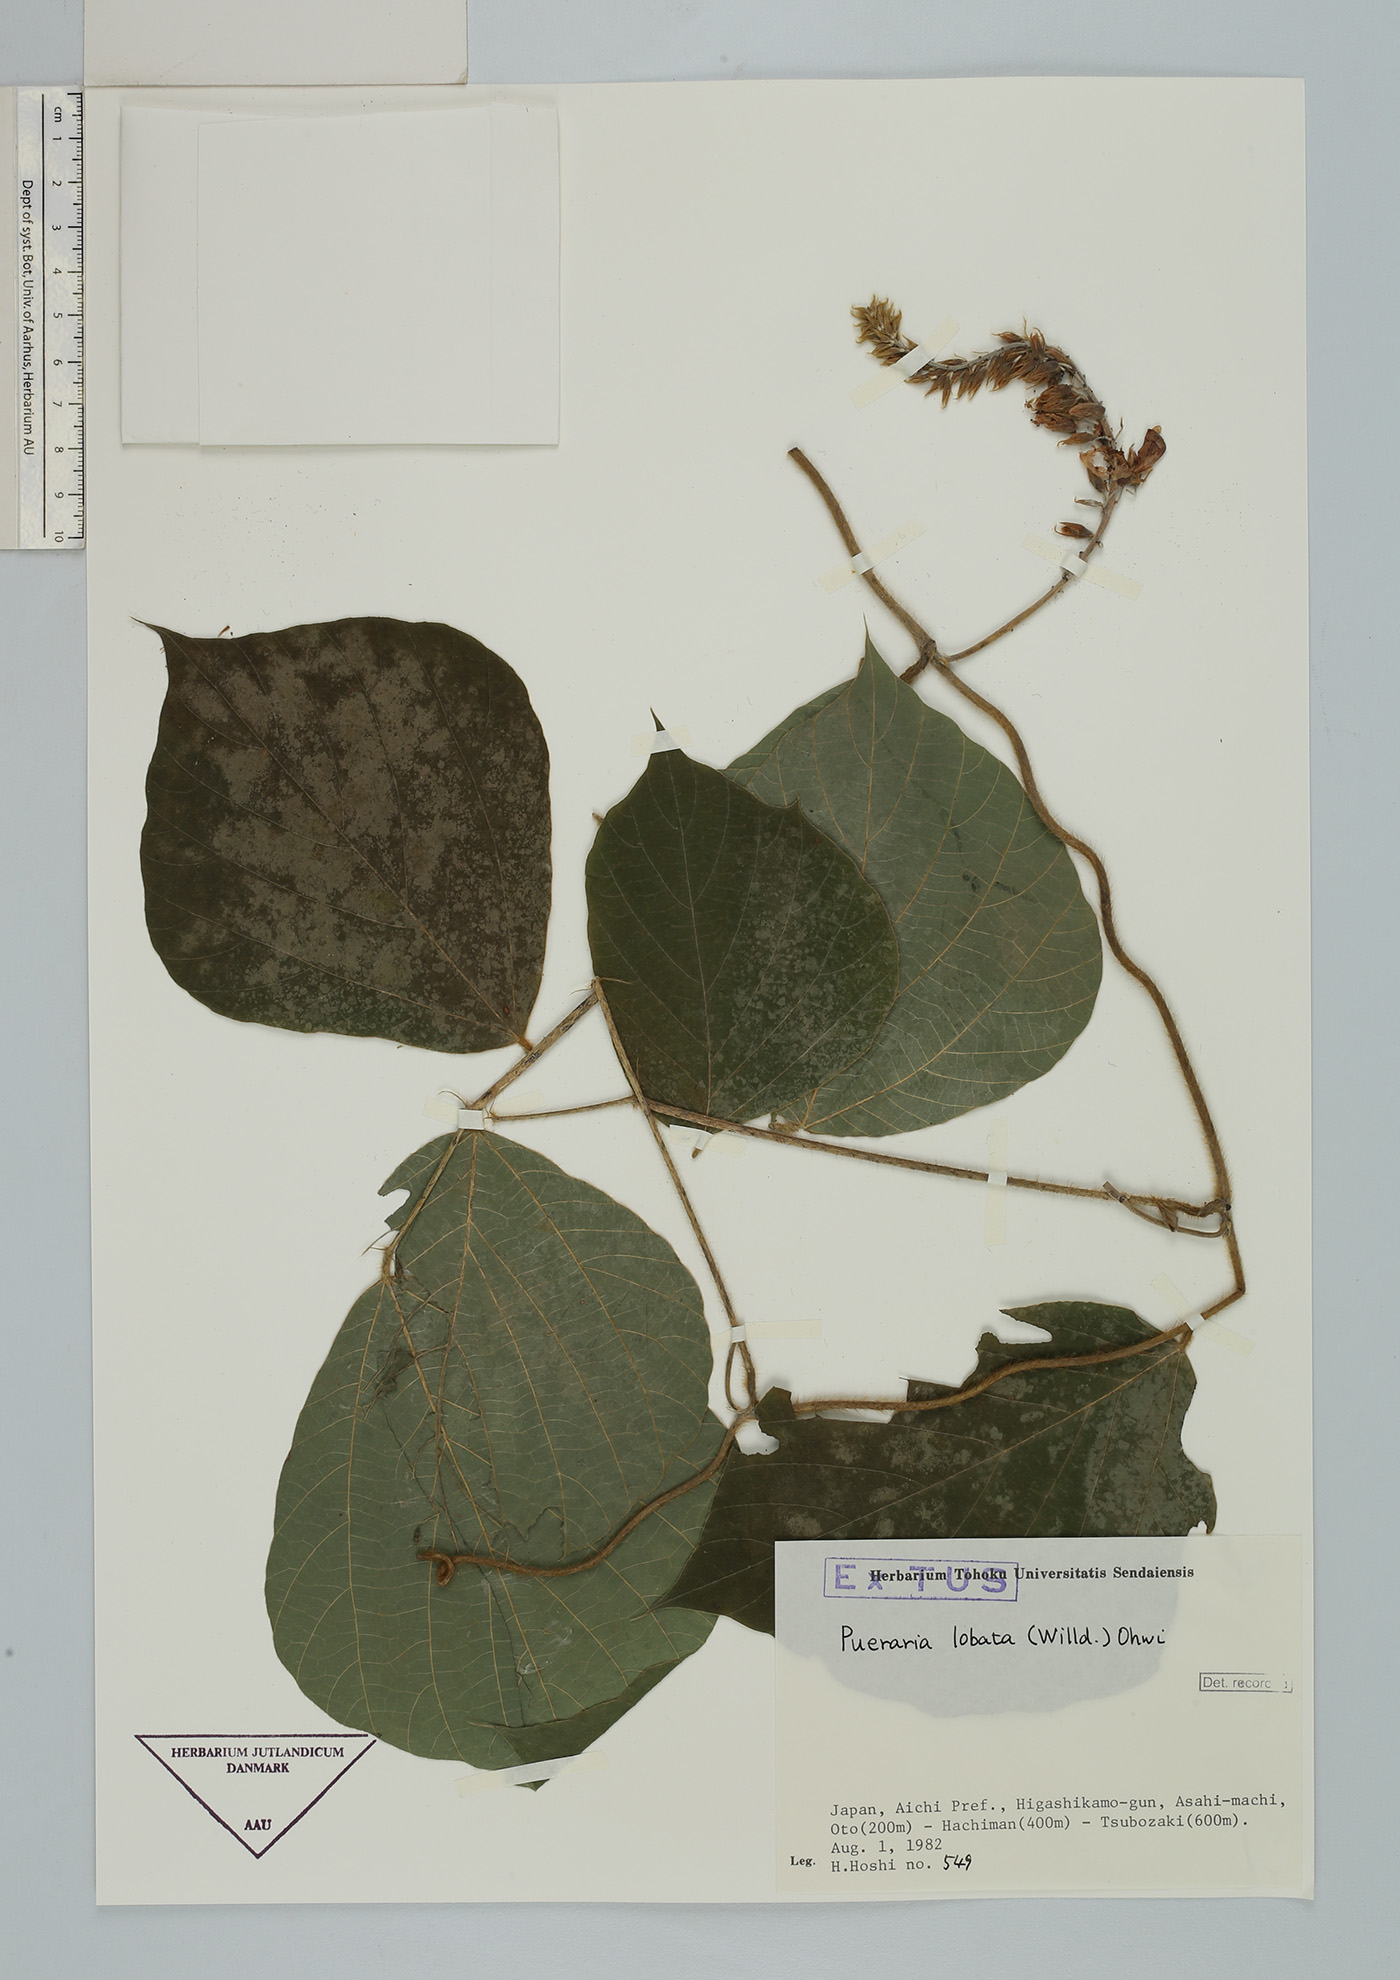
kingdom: Plantae
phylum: Tracheophyta
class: Magnoliopsida
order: Fabales
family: Fabaceae
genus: Pueraria
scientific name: Pueraria montana
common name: Kudzu
